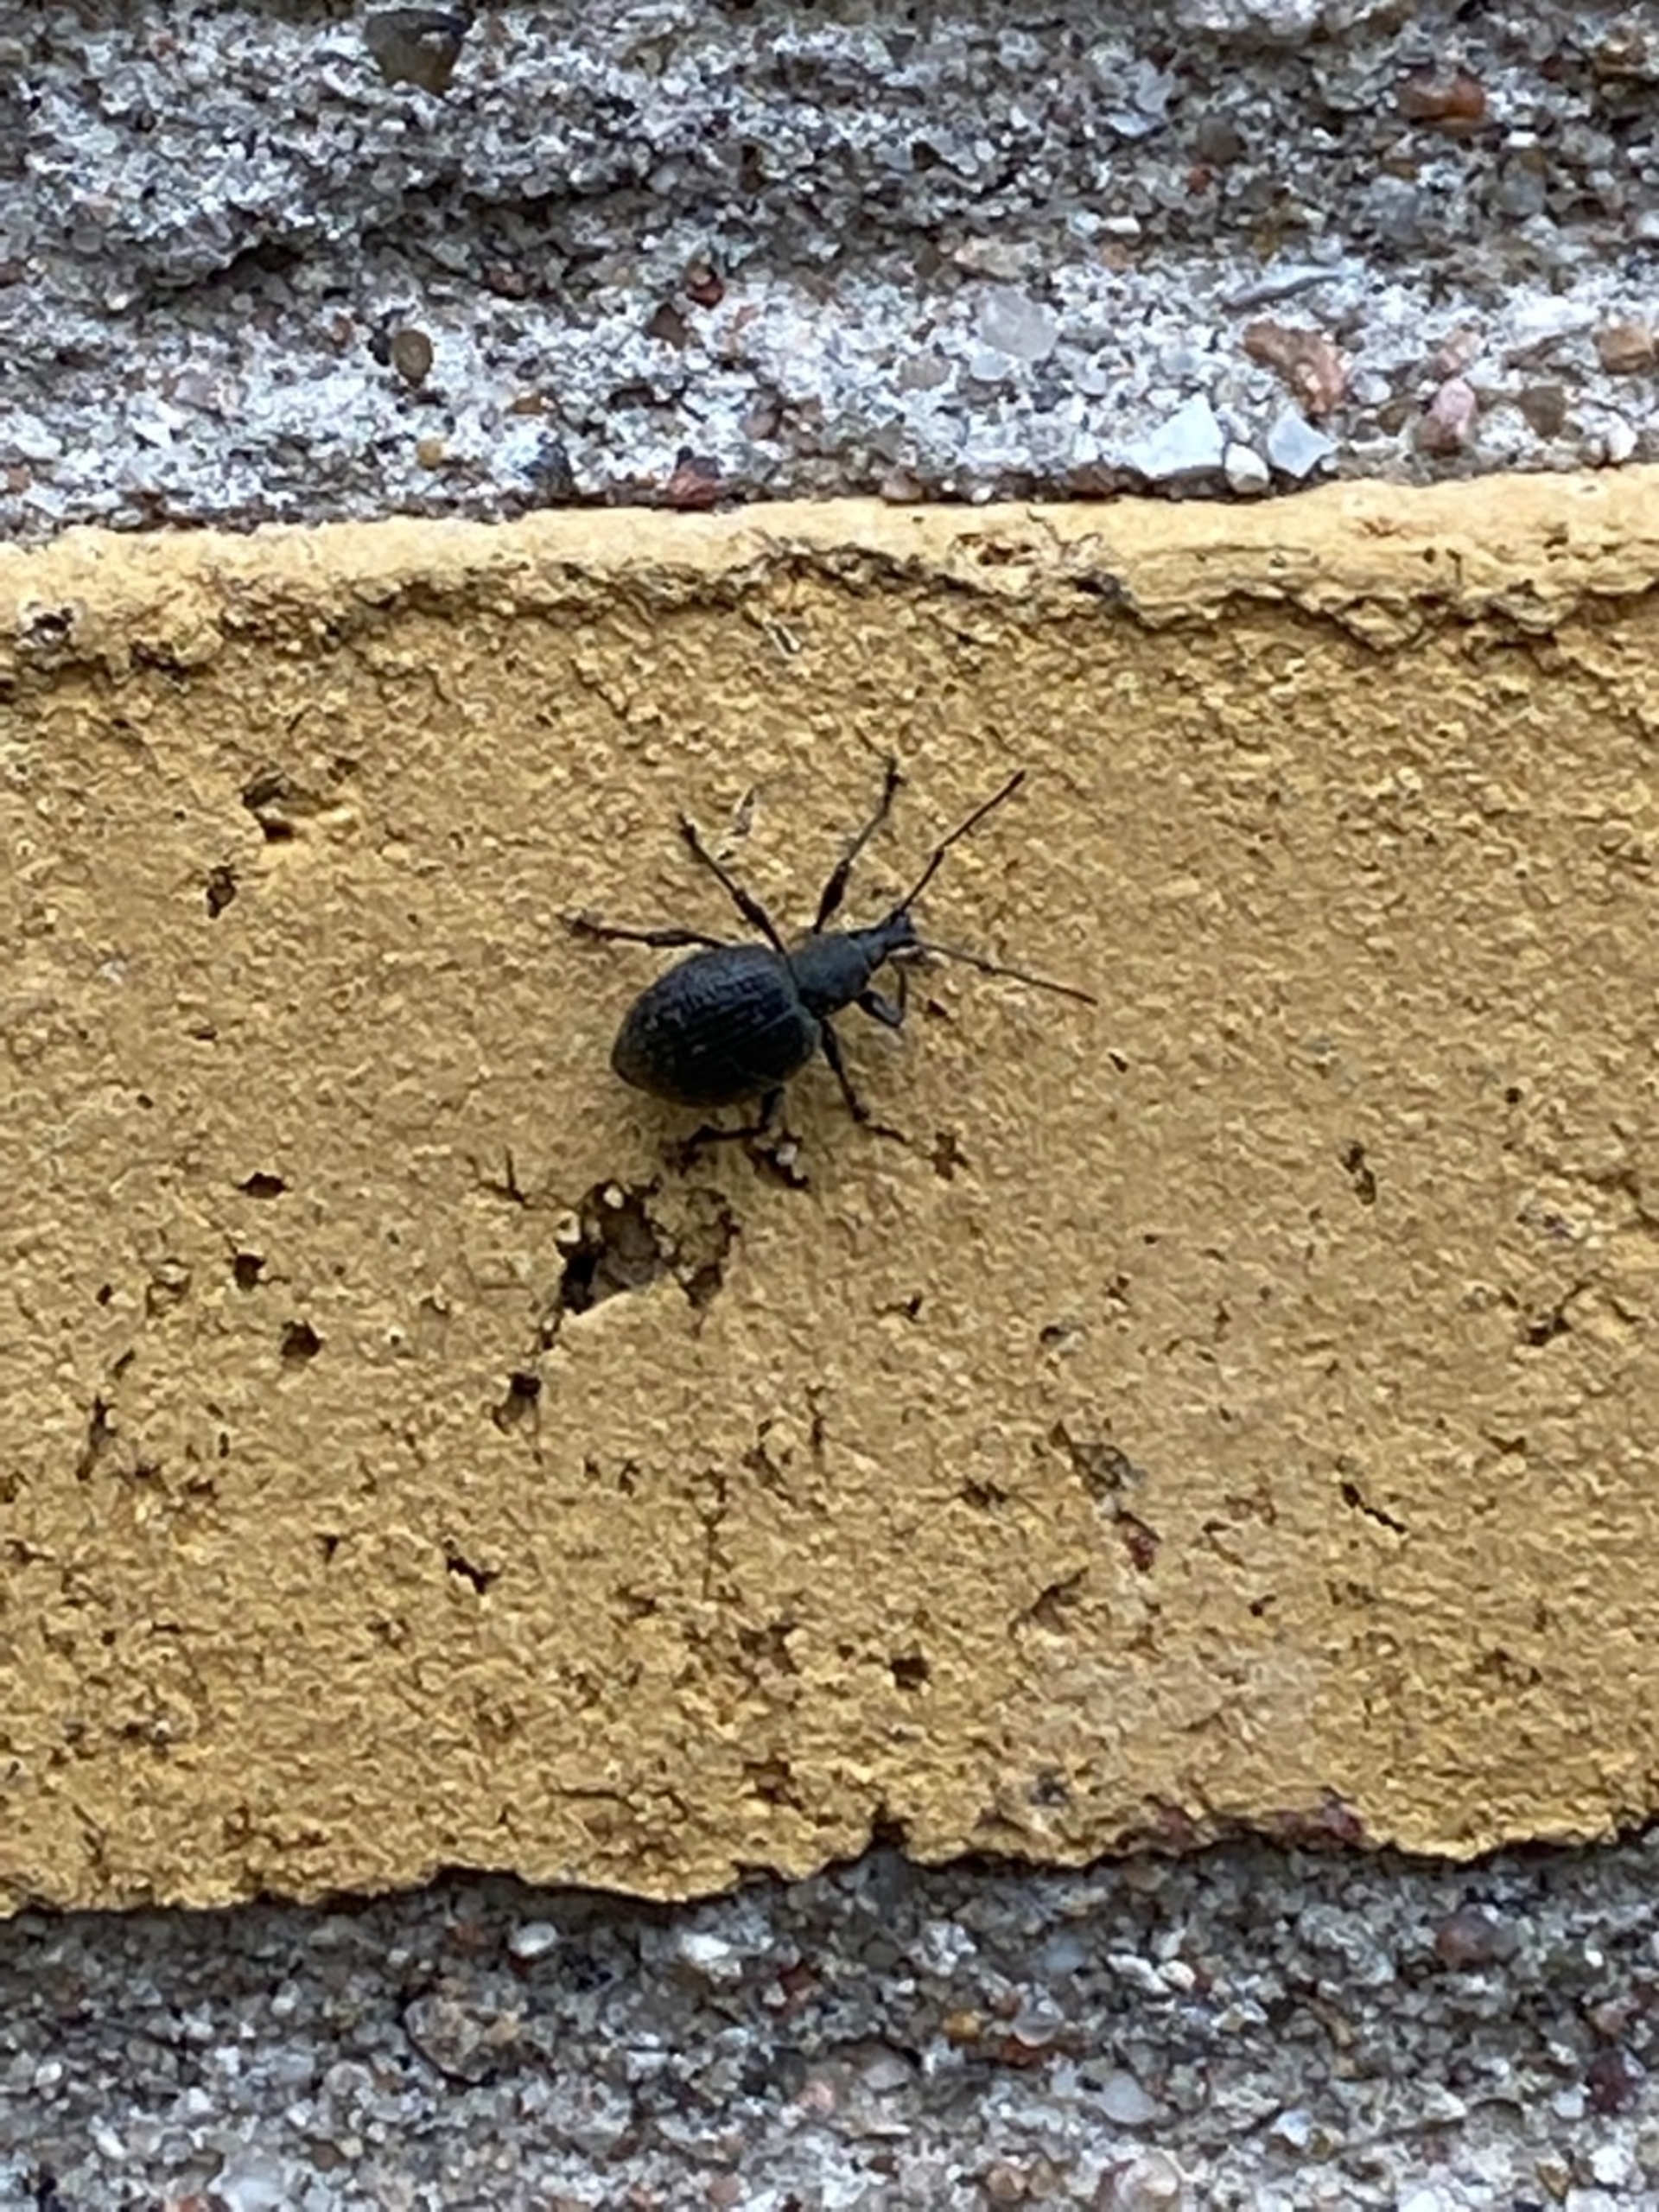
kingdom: Animalia
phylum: Arthropoda
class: Insecta
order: Coleoptera
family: Curculionidae
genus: Otiorhynchus
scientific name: Otiorhynchus
